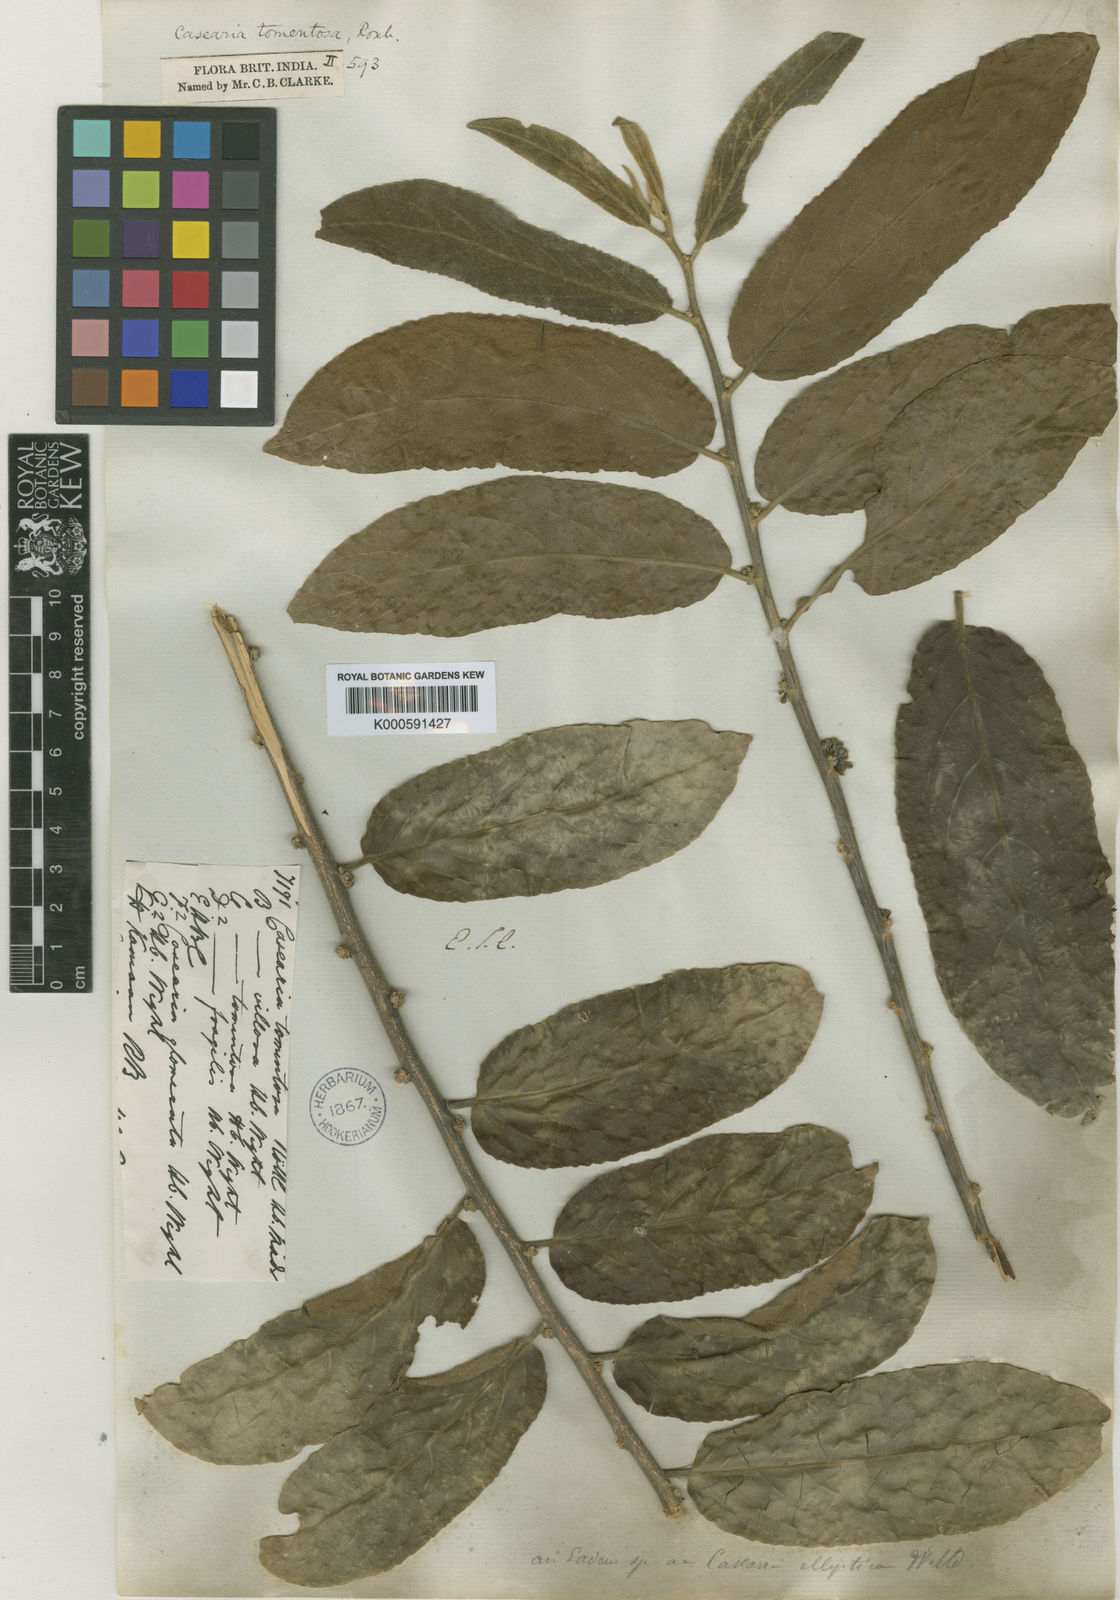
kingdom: Plantae
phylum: Tracheophyta
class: Magnoliopsida
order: Malpighiales
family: Salicaceae
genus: Casearia
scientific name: Casearia tomentosa
